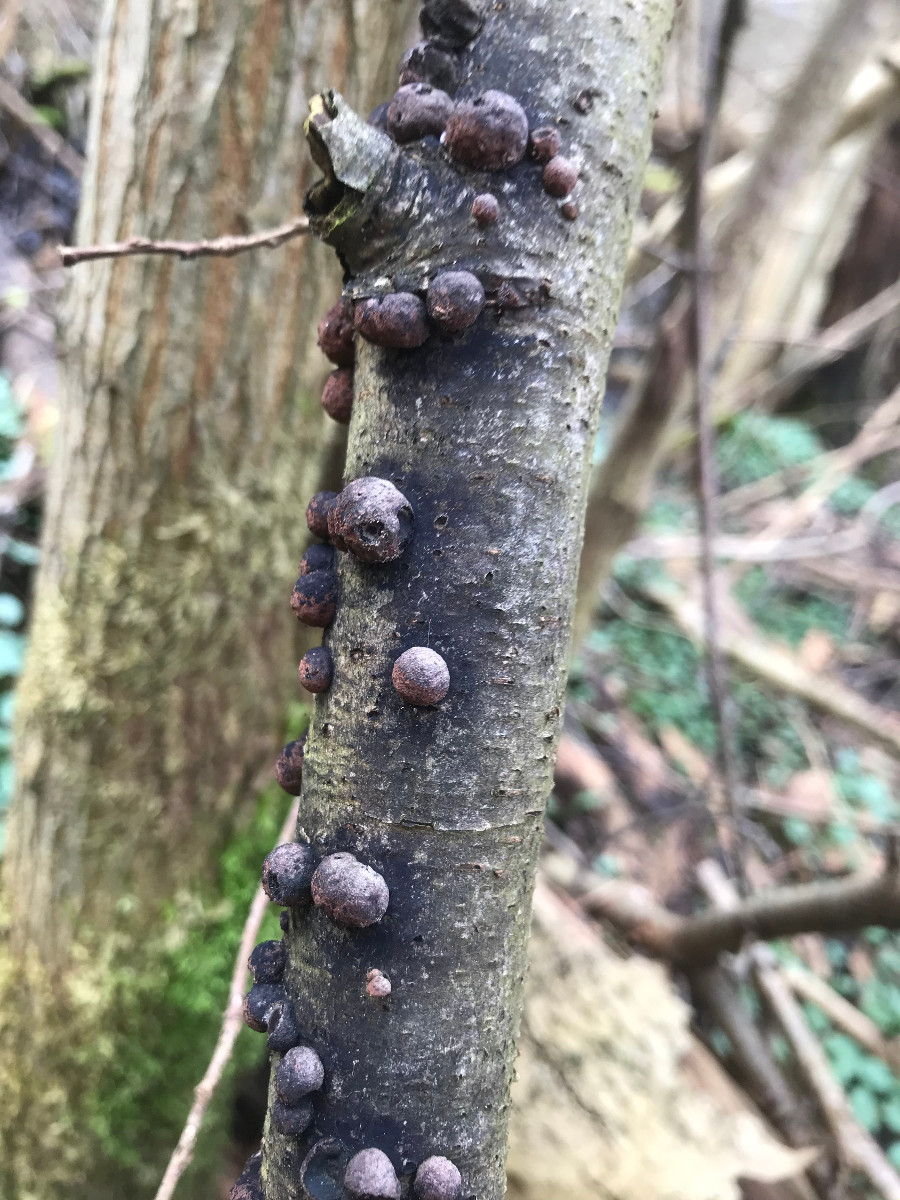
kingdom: Fungi
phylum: Ascomycota
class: Sordariomycetes
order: Xylariales
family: Hypoxylaceae
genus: Hypoxylon
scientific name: Hypoxylon
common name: kulbær
